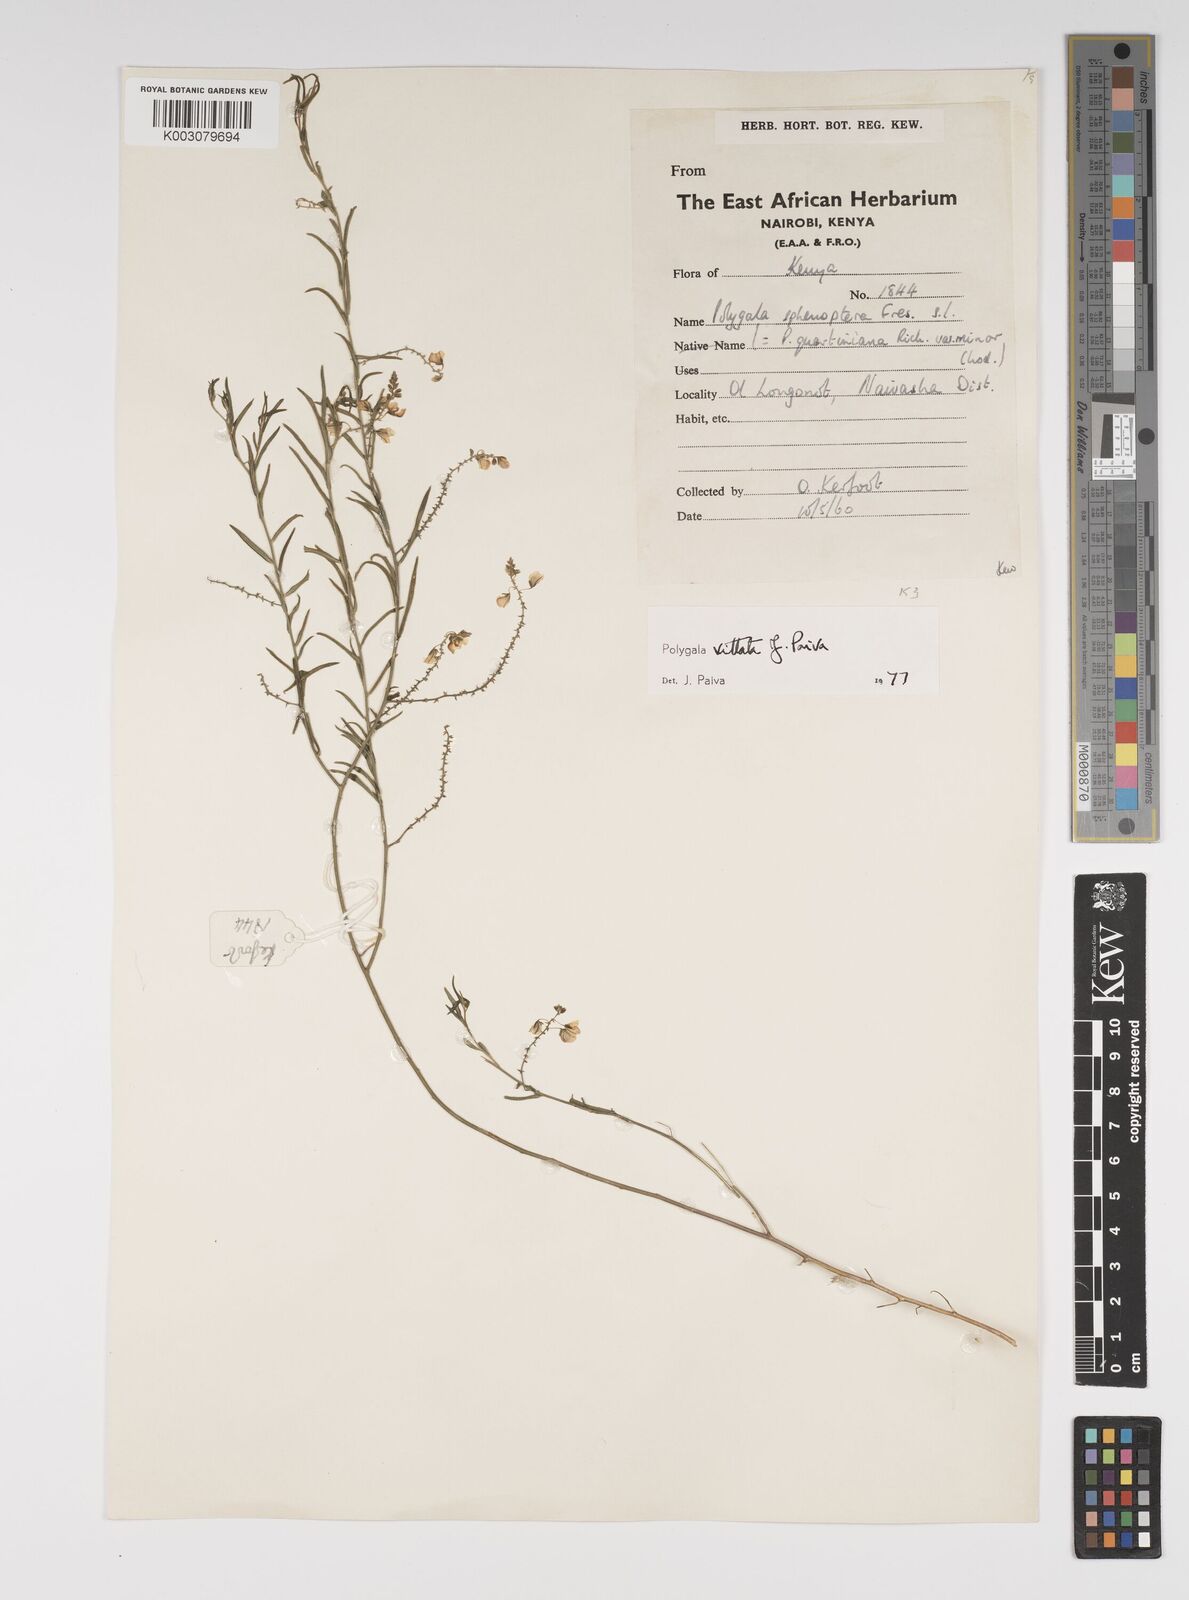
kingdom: Plantae
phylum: Tracheophyta
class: Magnoliopsida
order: Fabales
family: Polygalaceae
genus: Polygala
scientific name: Polygala vittata
